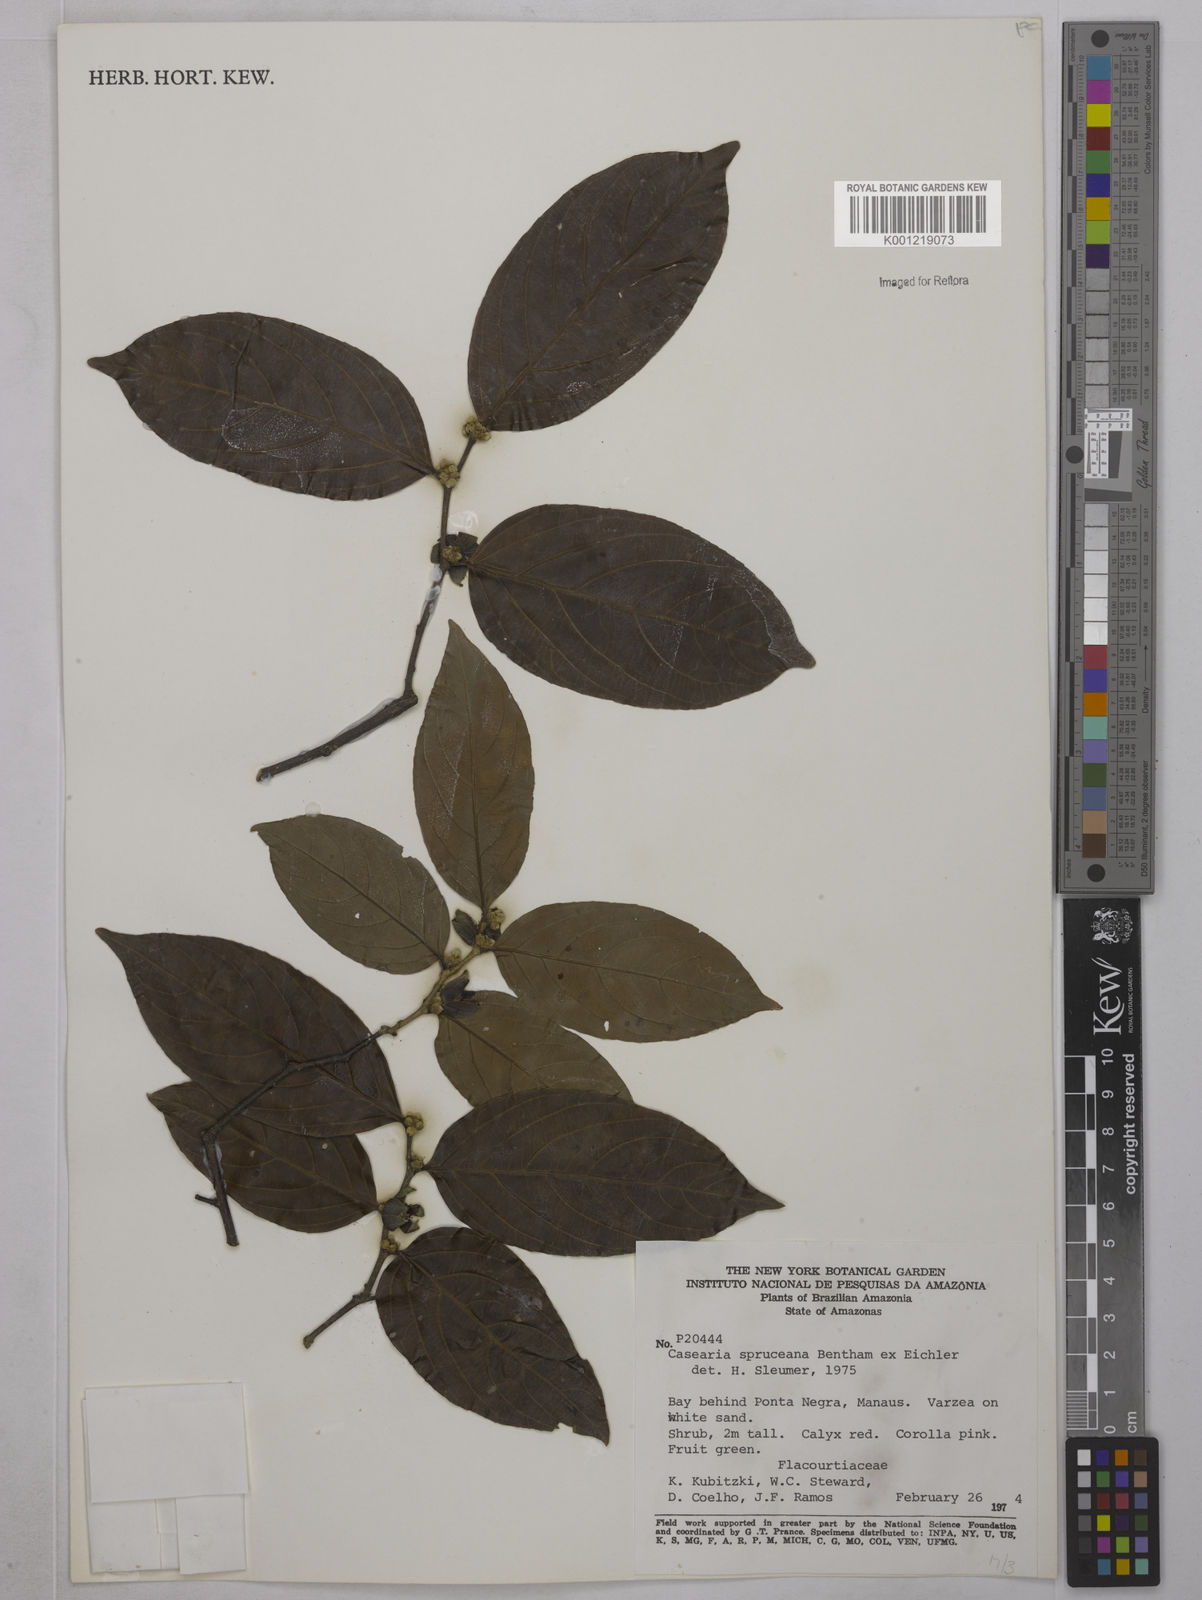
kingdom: Plantae
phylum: Tracheophyta
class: Magnoliopsida
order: Malpighiales
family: Salicaceae
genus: Piparea
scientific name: Piparea spruceana
